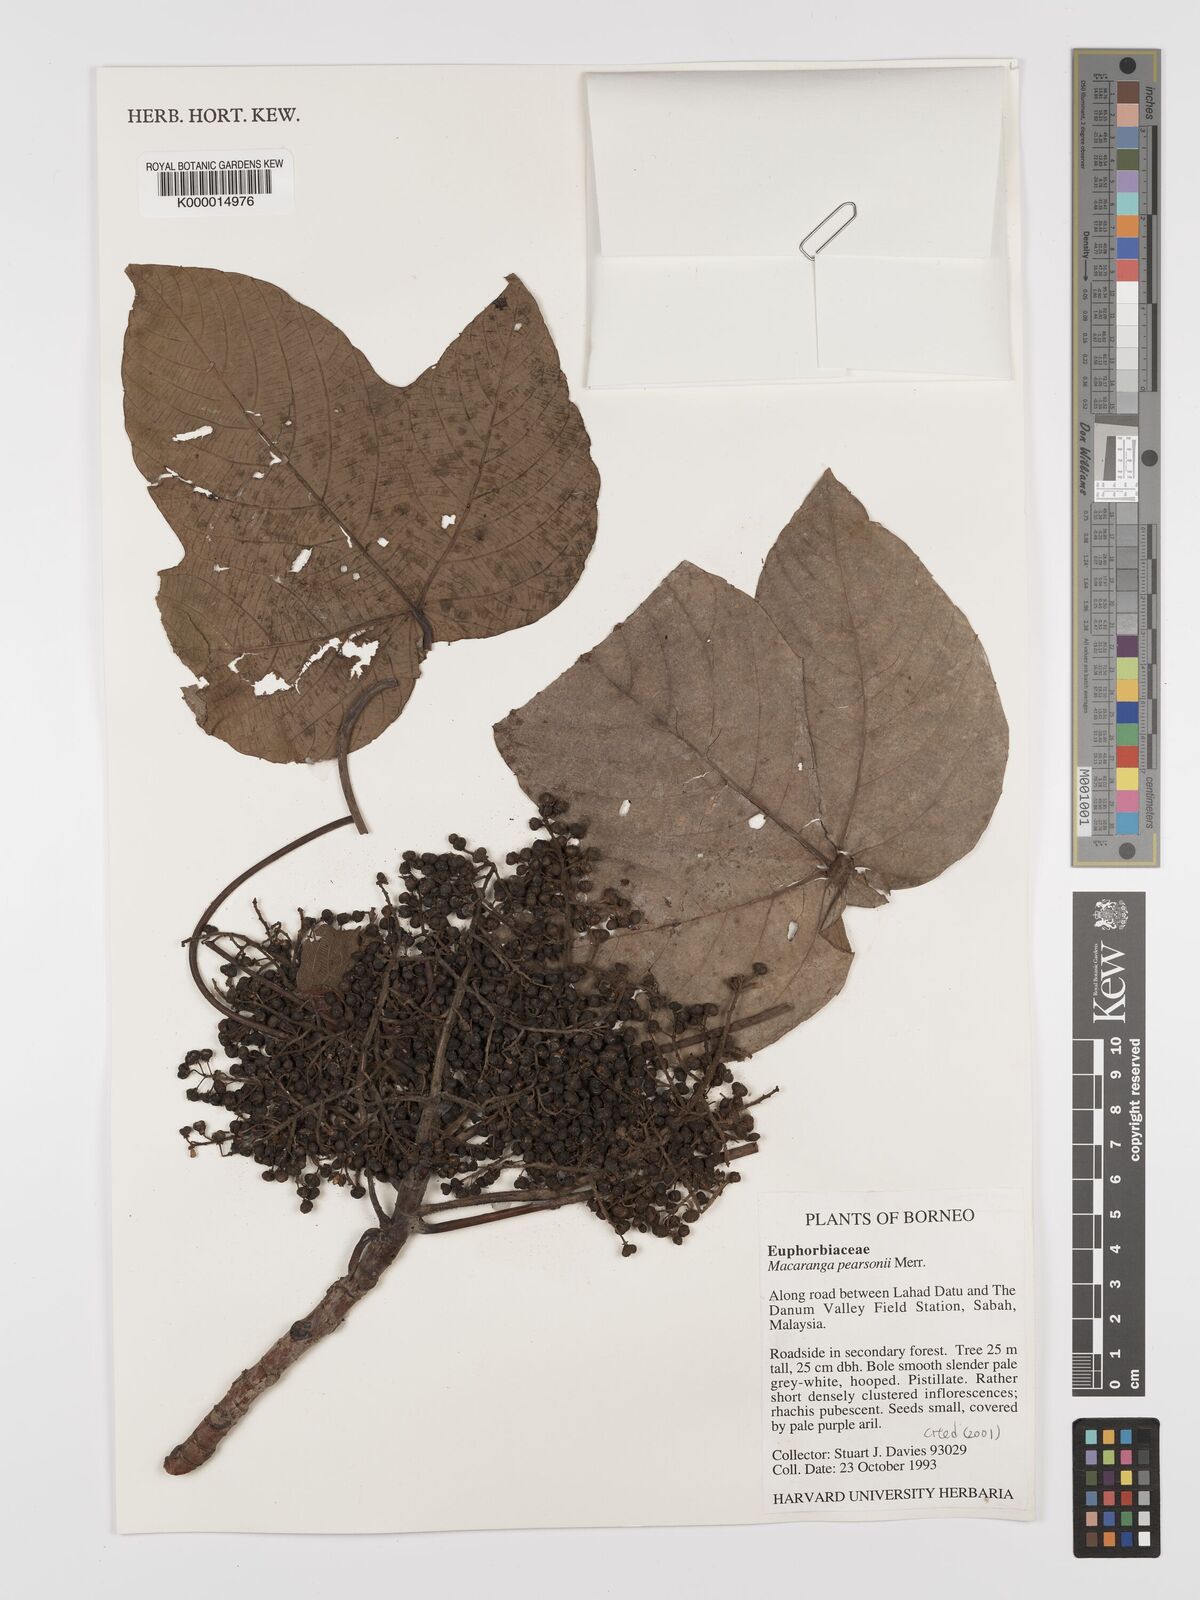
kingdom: Plantae
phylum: Tracheophyta
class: Magnoliopsida
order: Malpighiales
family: Euphorbiaceae
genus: Macaranga
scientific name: Macaranga pearsonii
